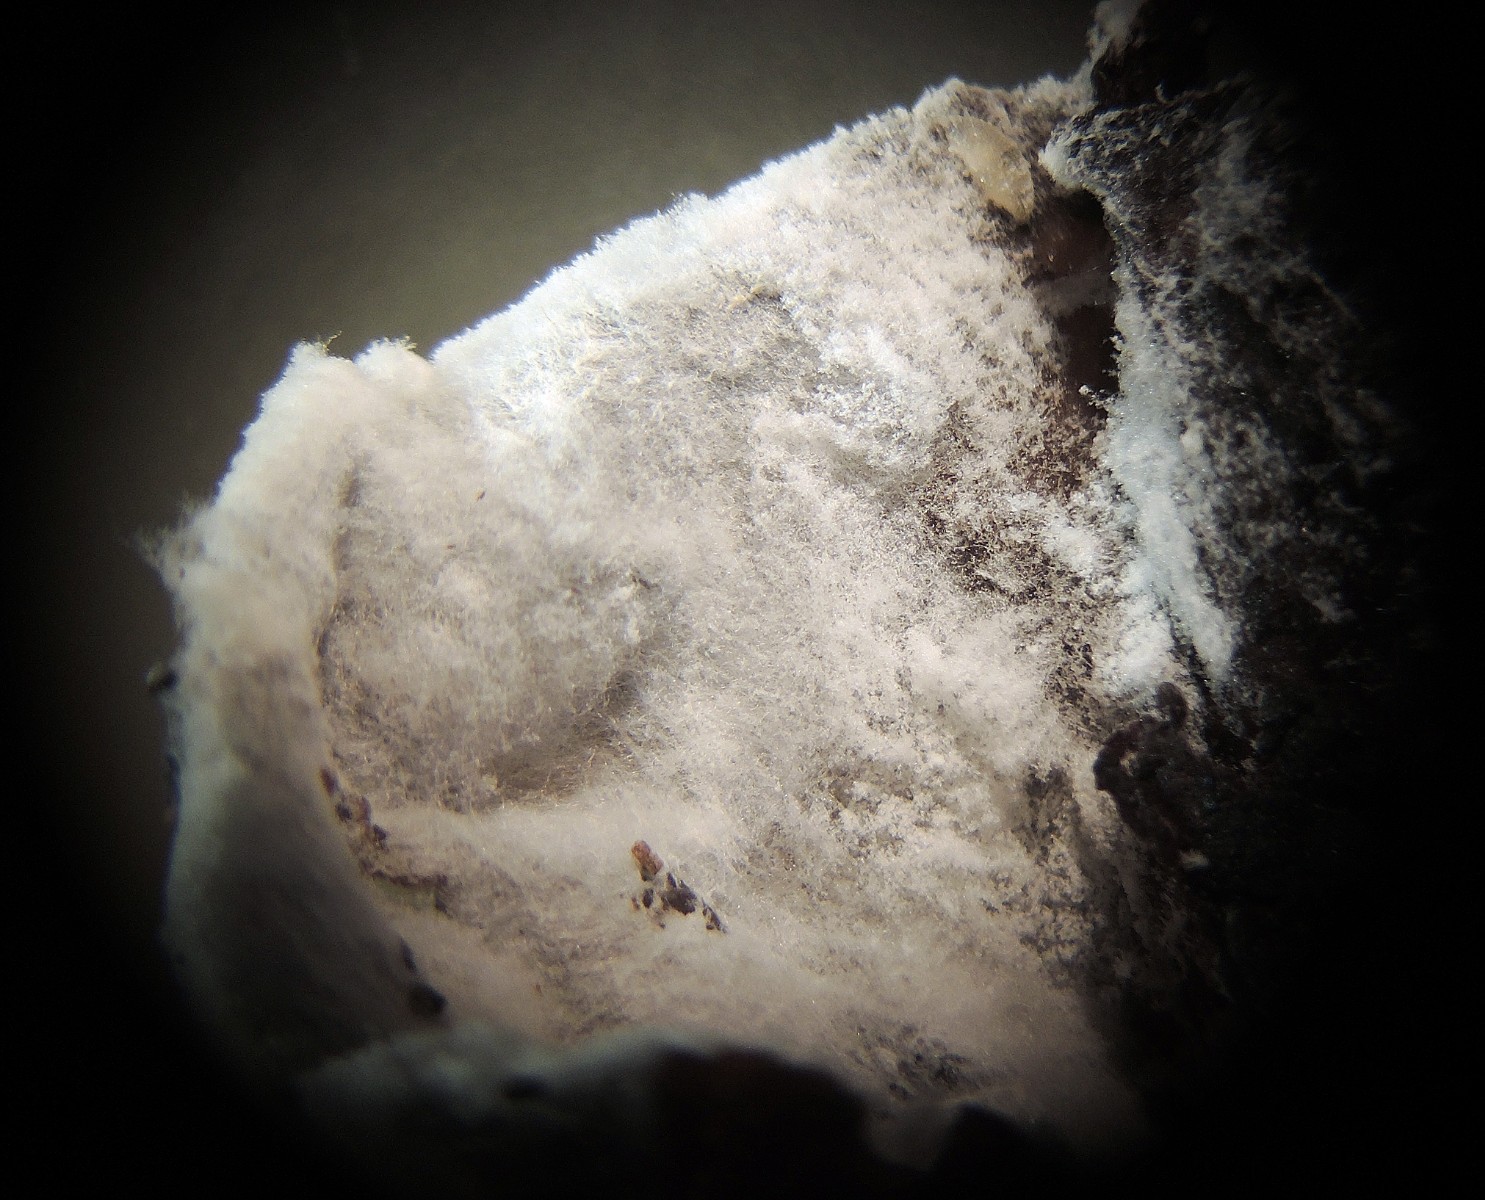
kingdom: Fungi
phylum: Ascomycota
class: Sordariomycetes
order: Hypocreales
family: Hypocreaceae
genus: Hypomyces
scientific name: Hypomyces aurantius
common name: almindelig snylteskorpe
